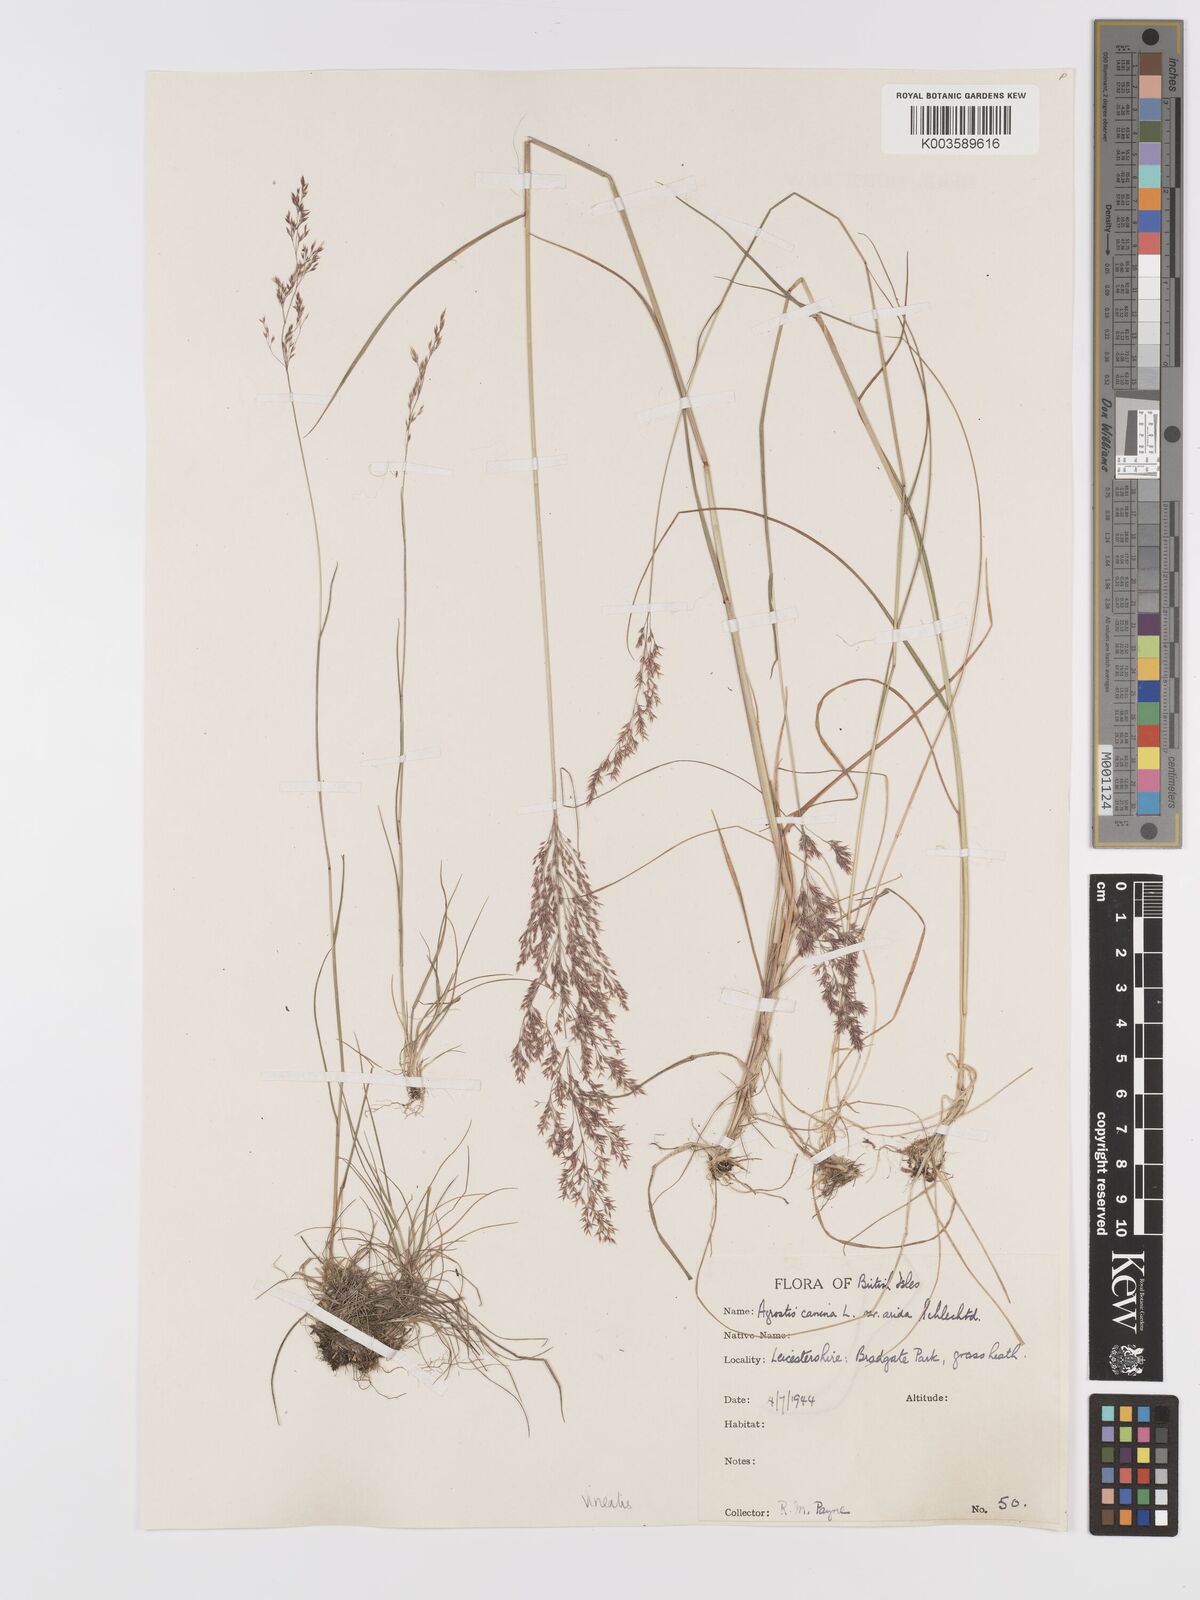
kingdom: Plantae
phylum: Tracheophyta
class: Liliopsida
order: Poales
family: Poaceae
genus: Agrostis
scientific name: Agrostis
